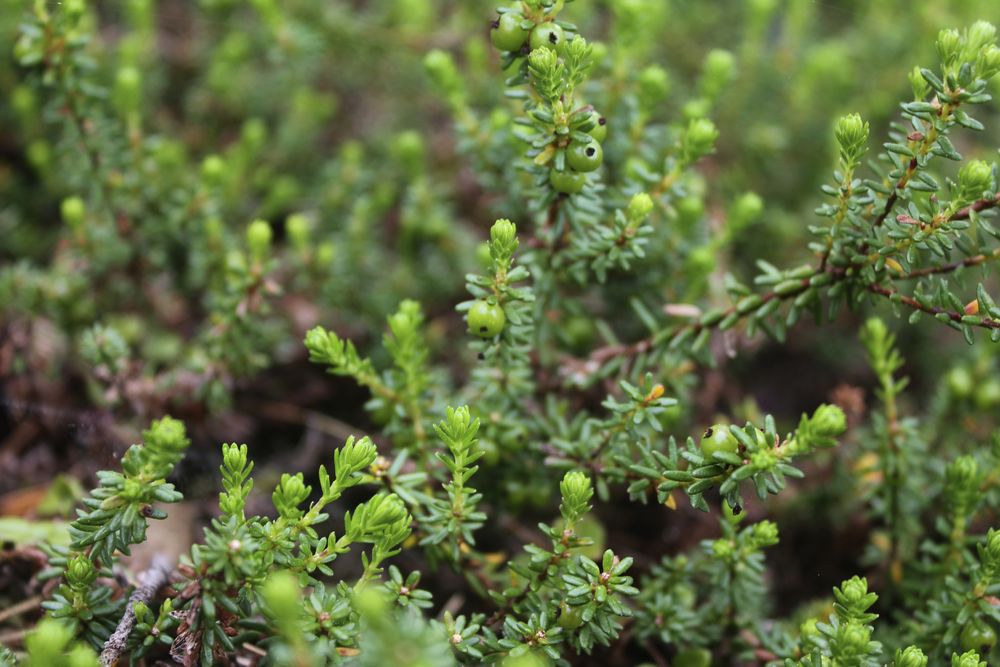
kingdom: Plantae
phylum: Tracheophyta
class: Magnoliopsida
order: Ericales
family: Ericaceae
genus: Empetrum
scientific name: Empetrum hermaphroditum
